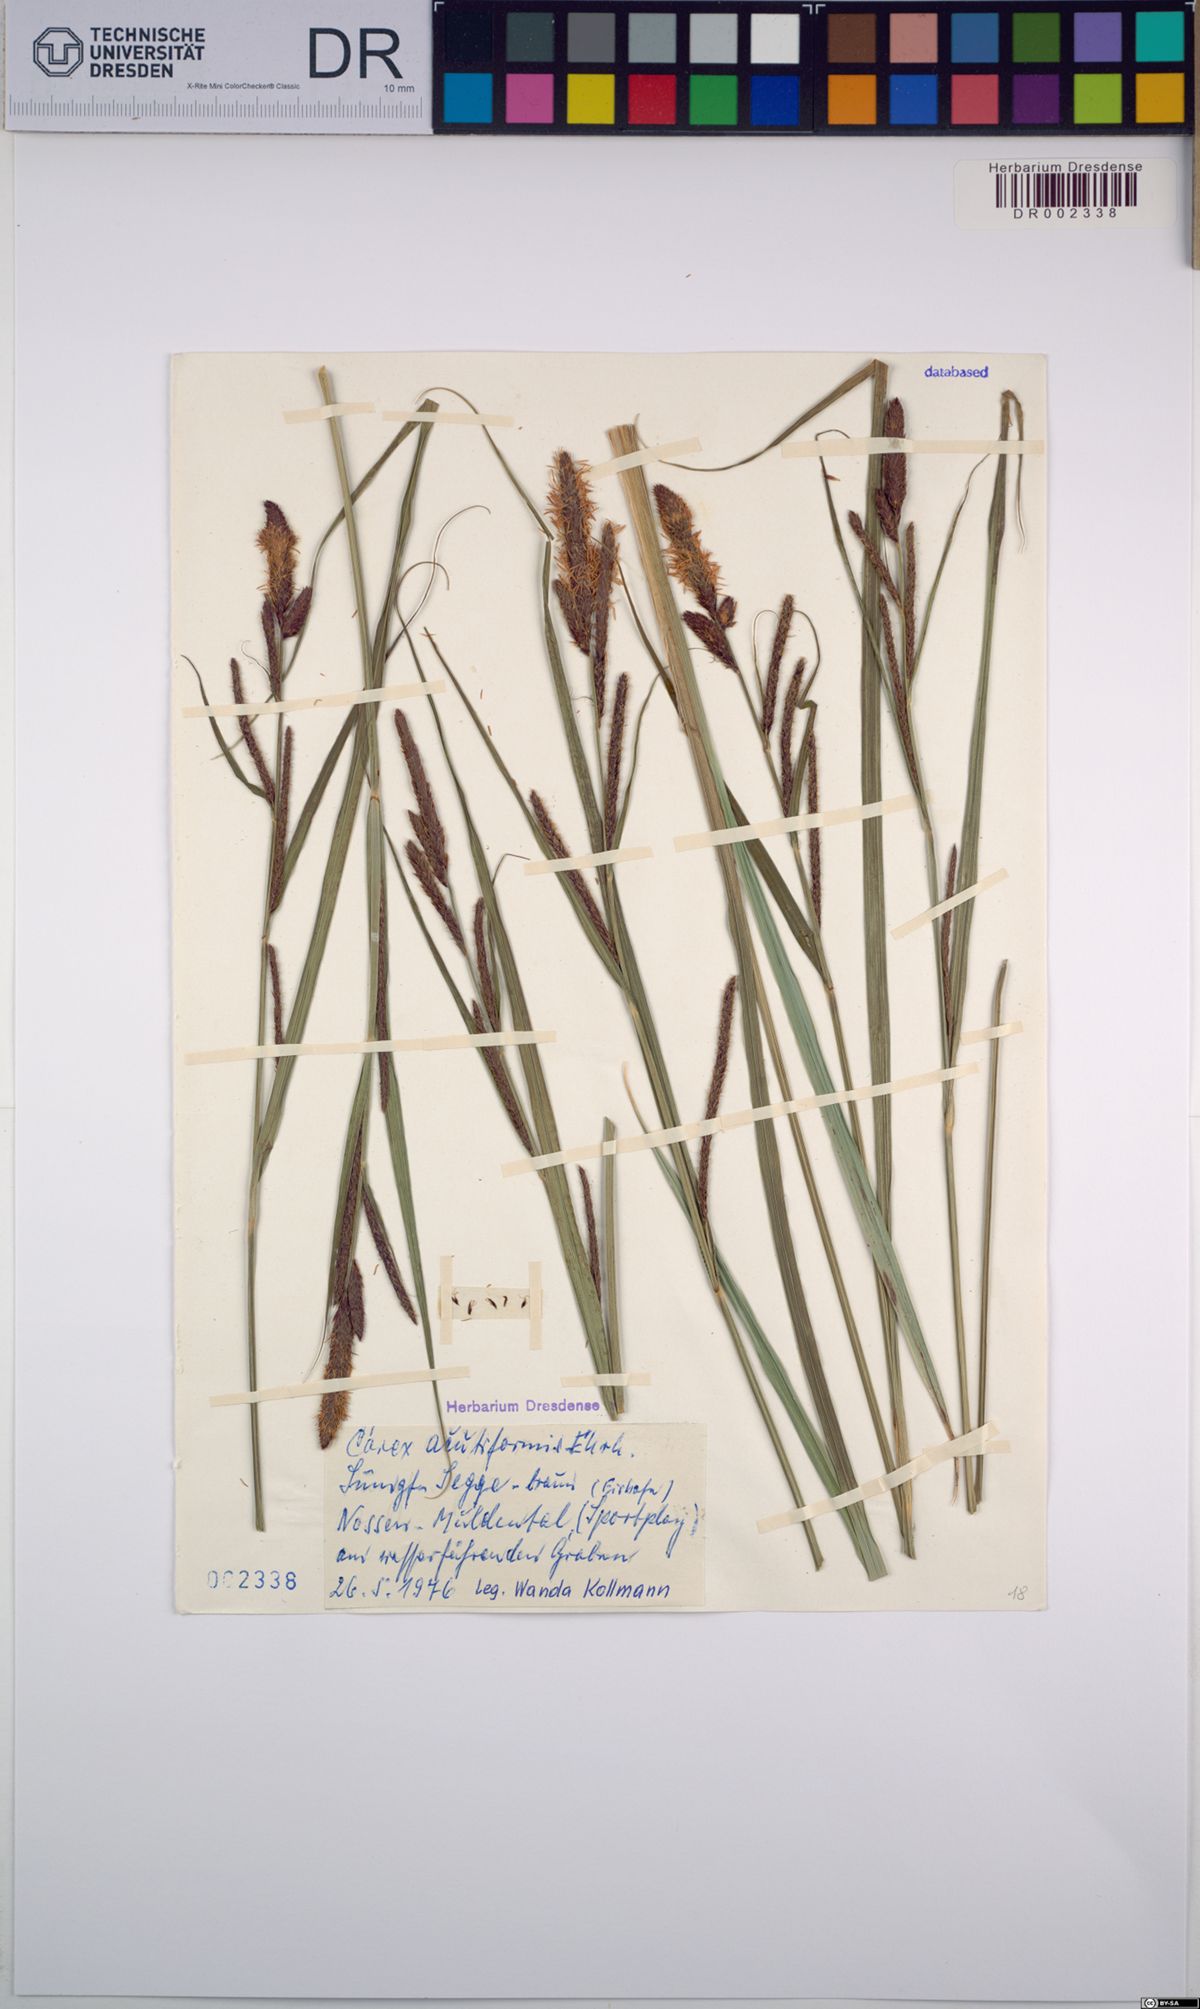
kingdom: Plantae
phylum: Tracheophyta
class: Liliopsida
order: Poales
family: Cyperaceae
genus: Carex
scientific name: Carex acutiformis
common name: Lesser pond-sedge
